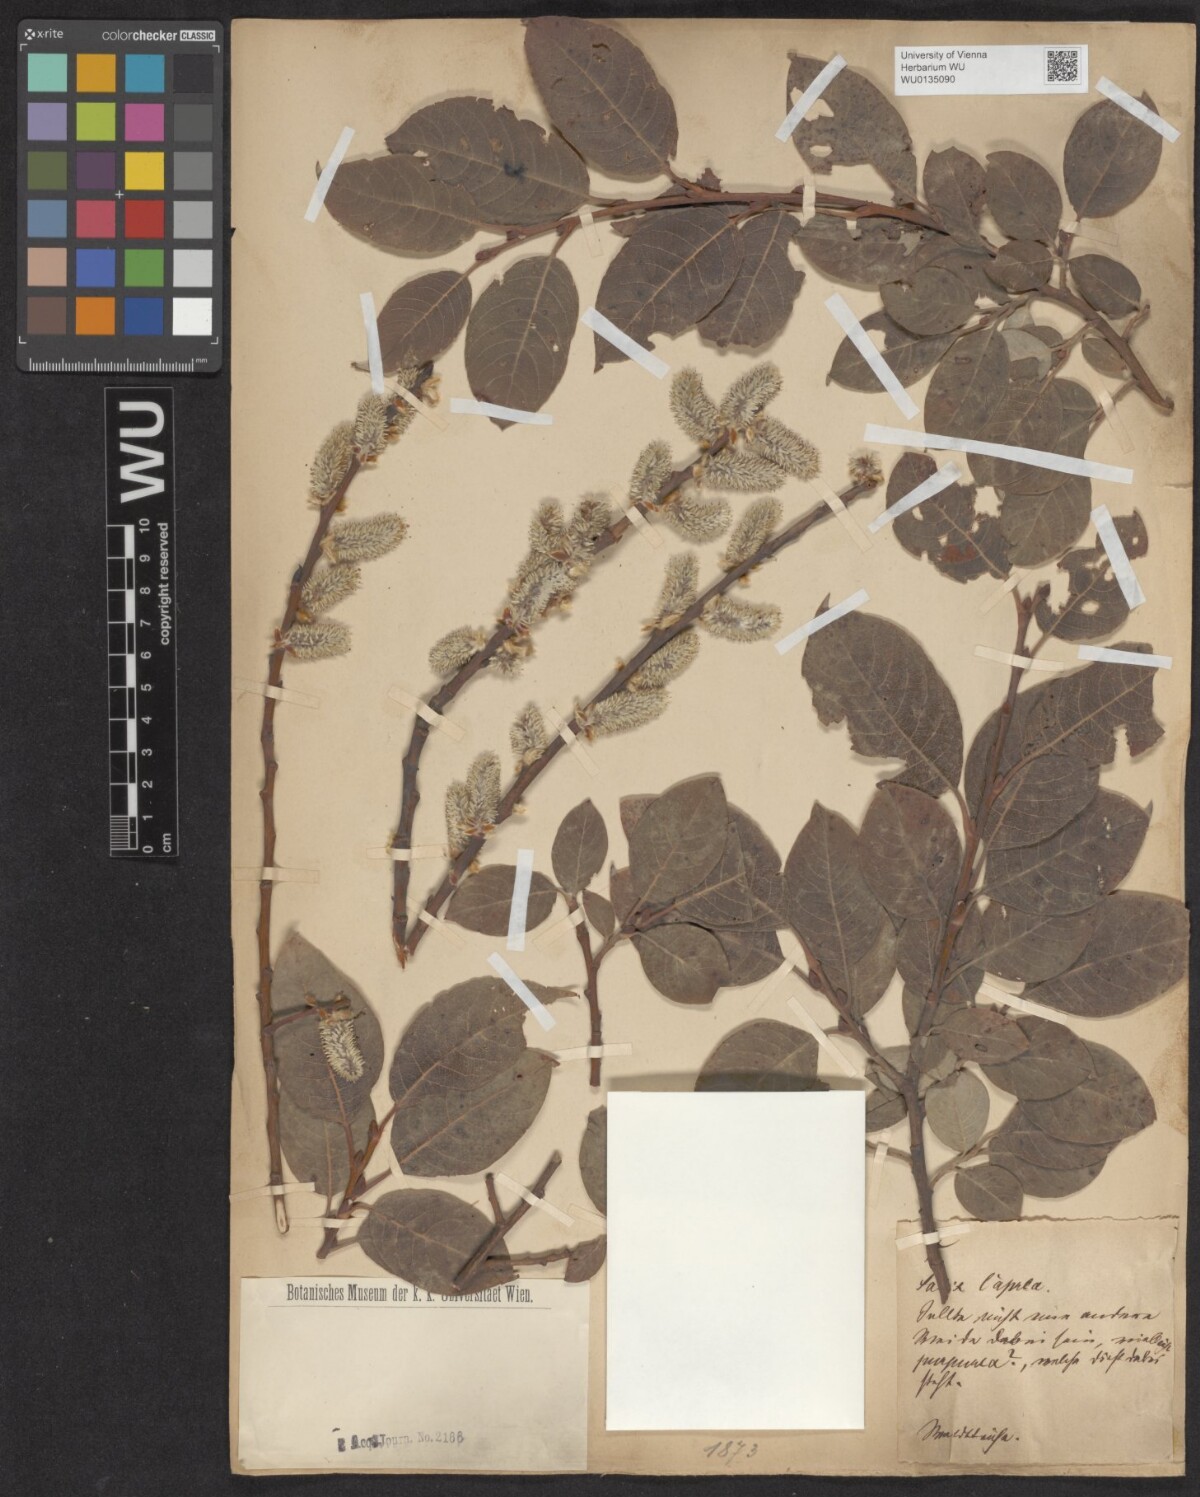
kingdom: Plantae
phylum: Tracheophyta
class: Magnoliopsida
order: Malpighiales
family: Salicaceae
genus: Salix
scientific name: Salix caprea
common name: Goat willow
